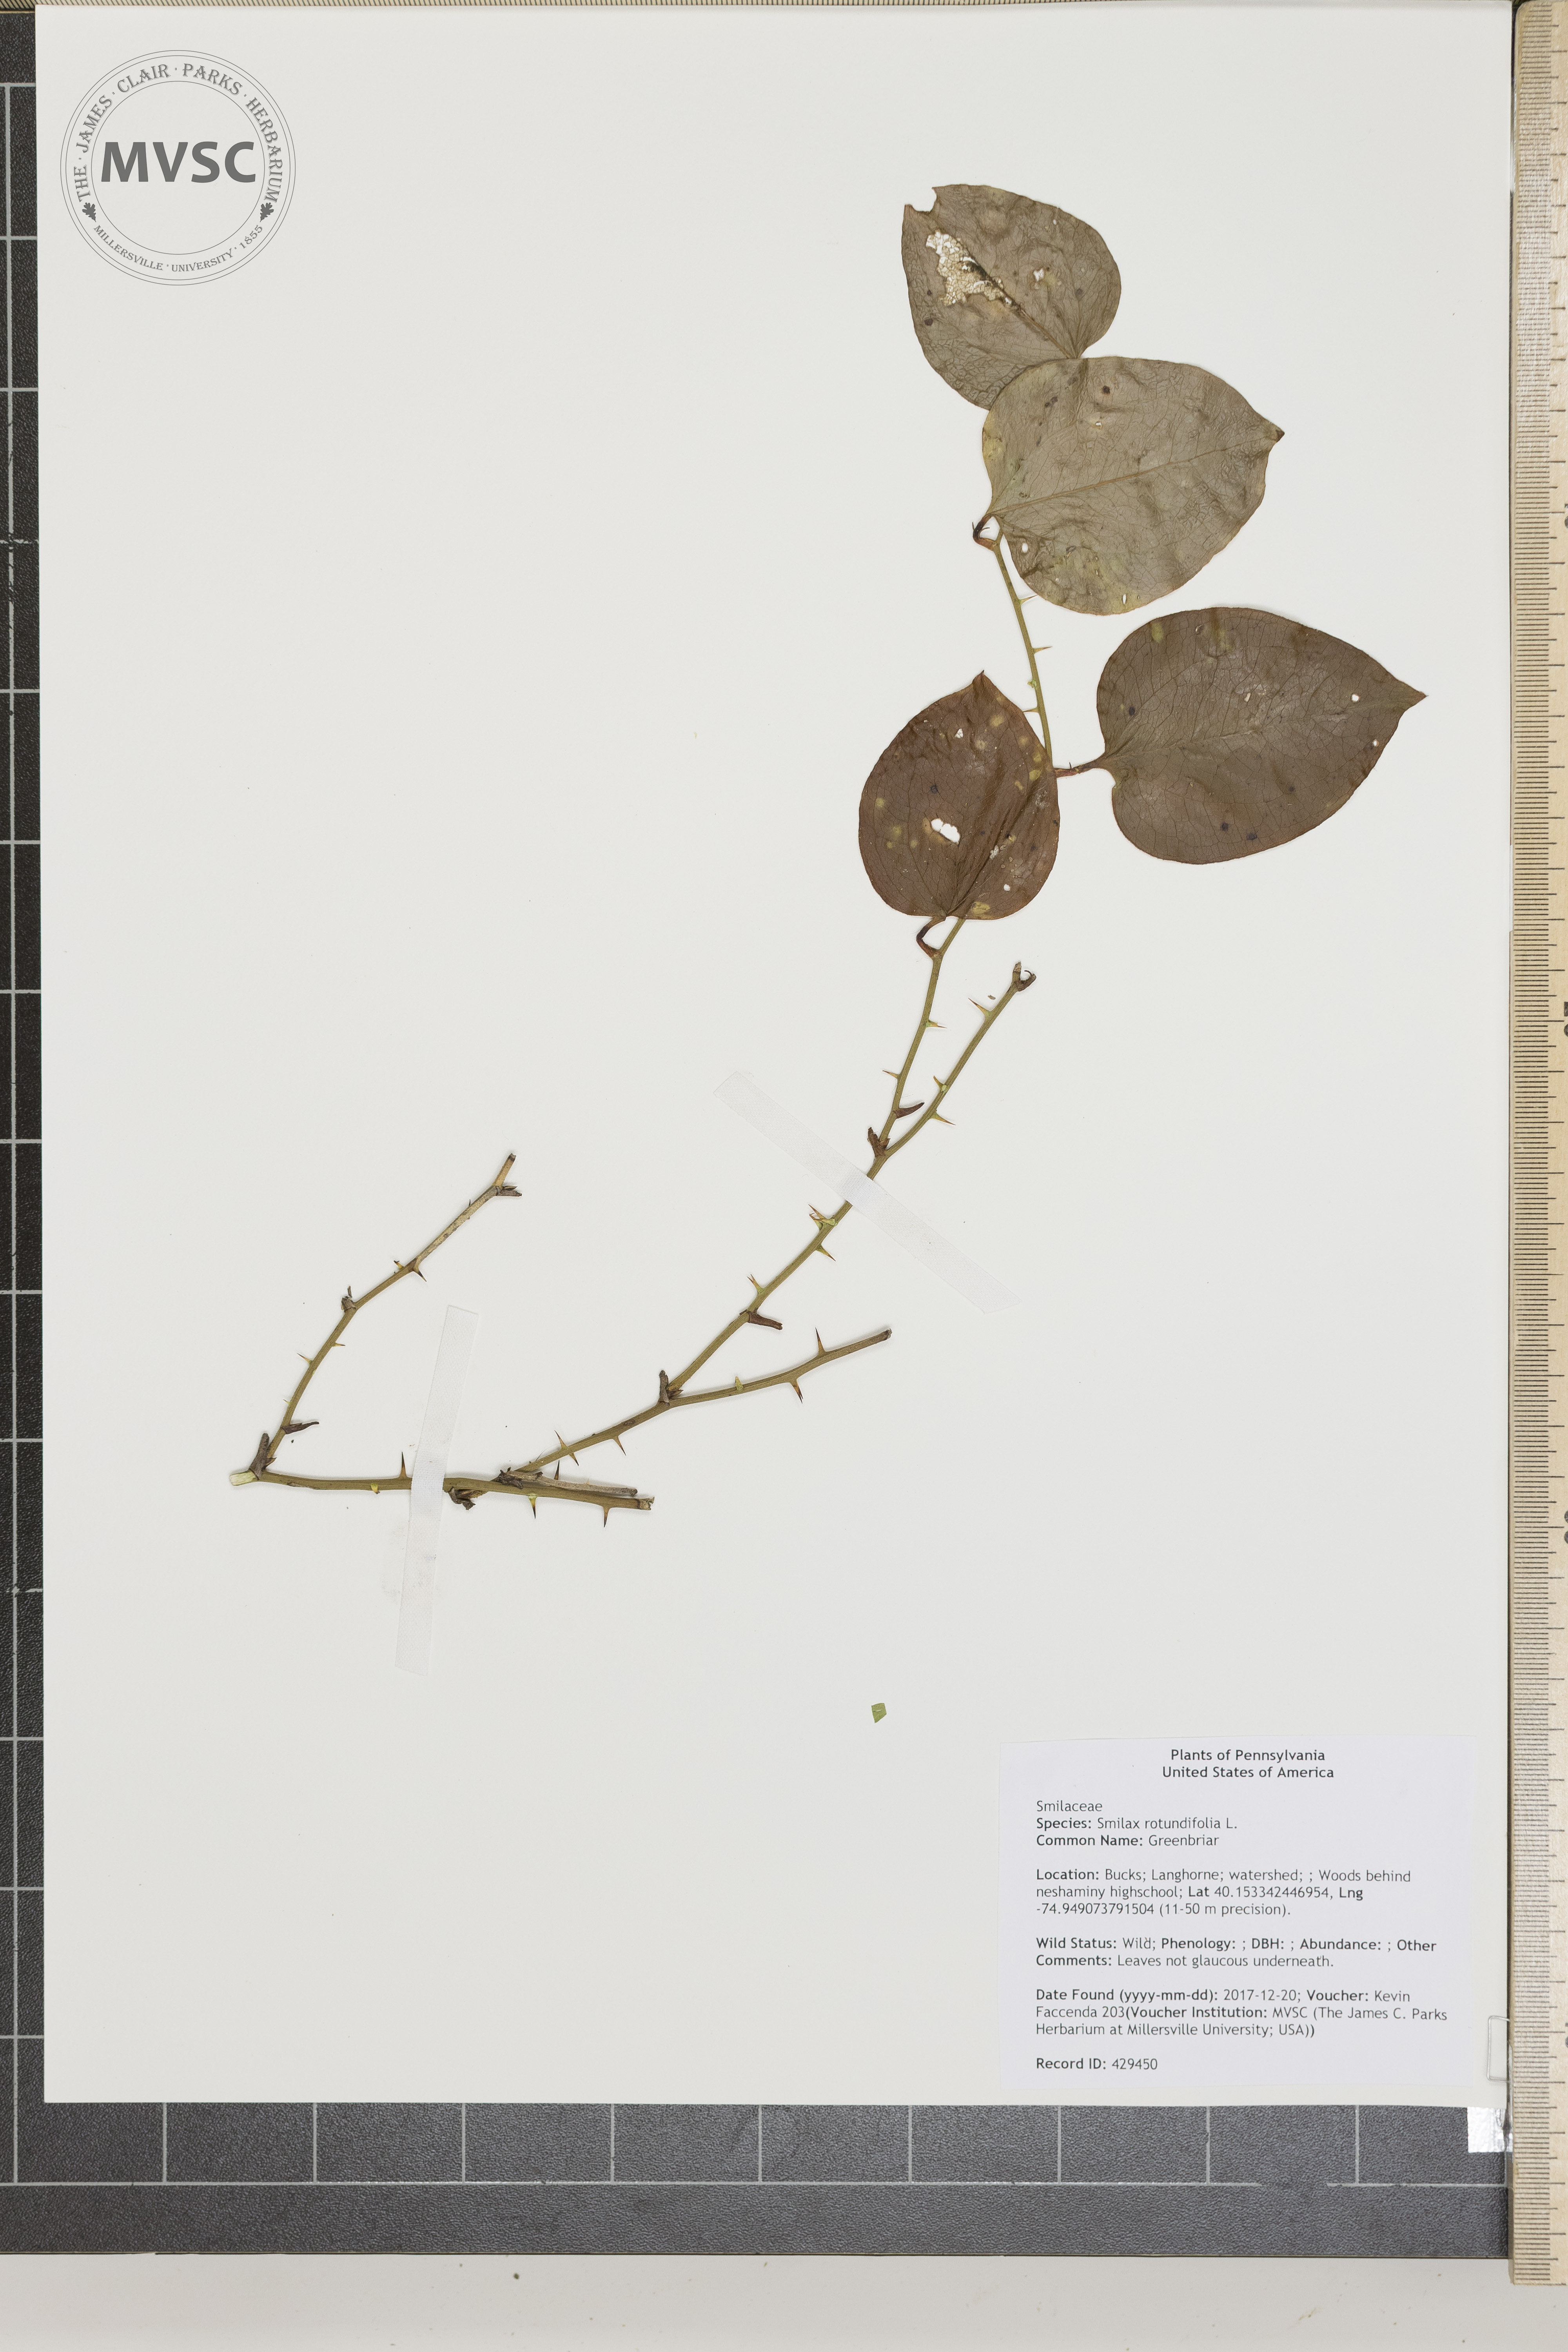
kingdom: Plantae
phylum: Tracheophyta
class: Liliopsida
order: Liliales
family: Smilacaceae
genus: Smilax
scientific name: Smilax rotundifolia
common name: Greenbriar
